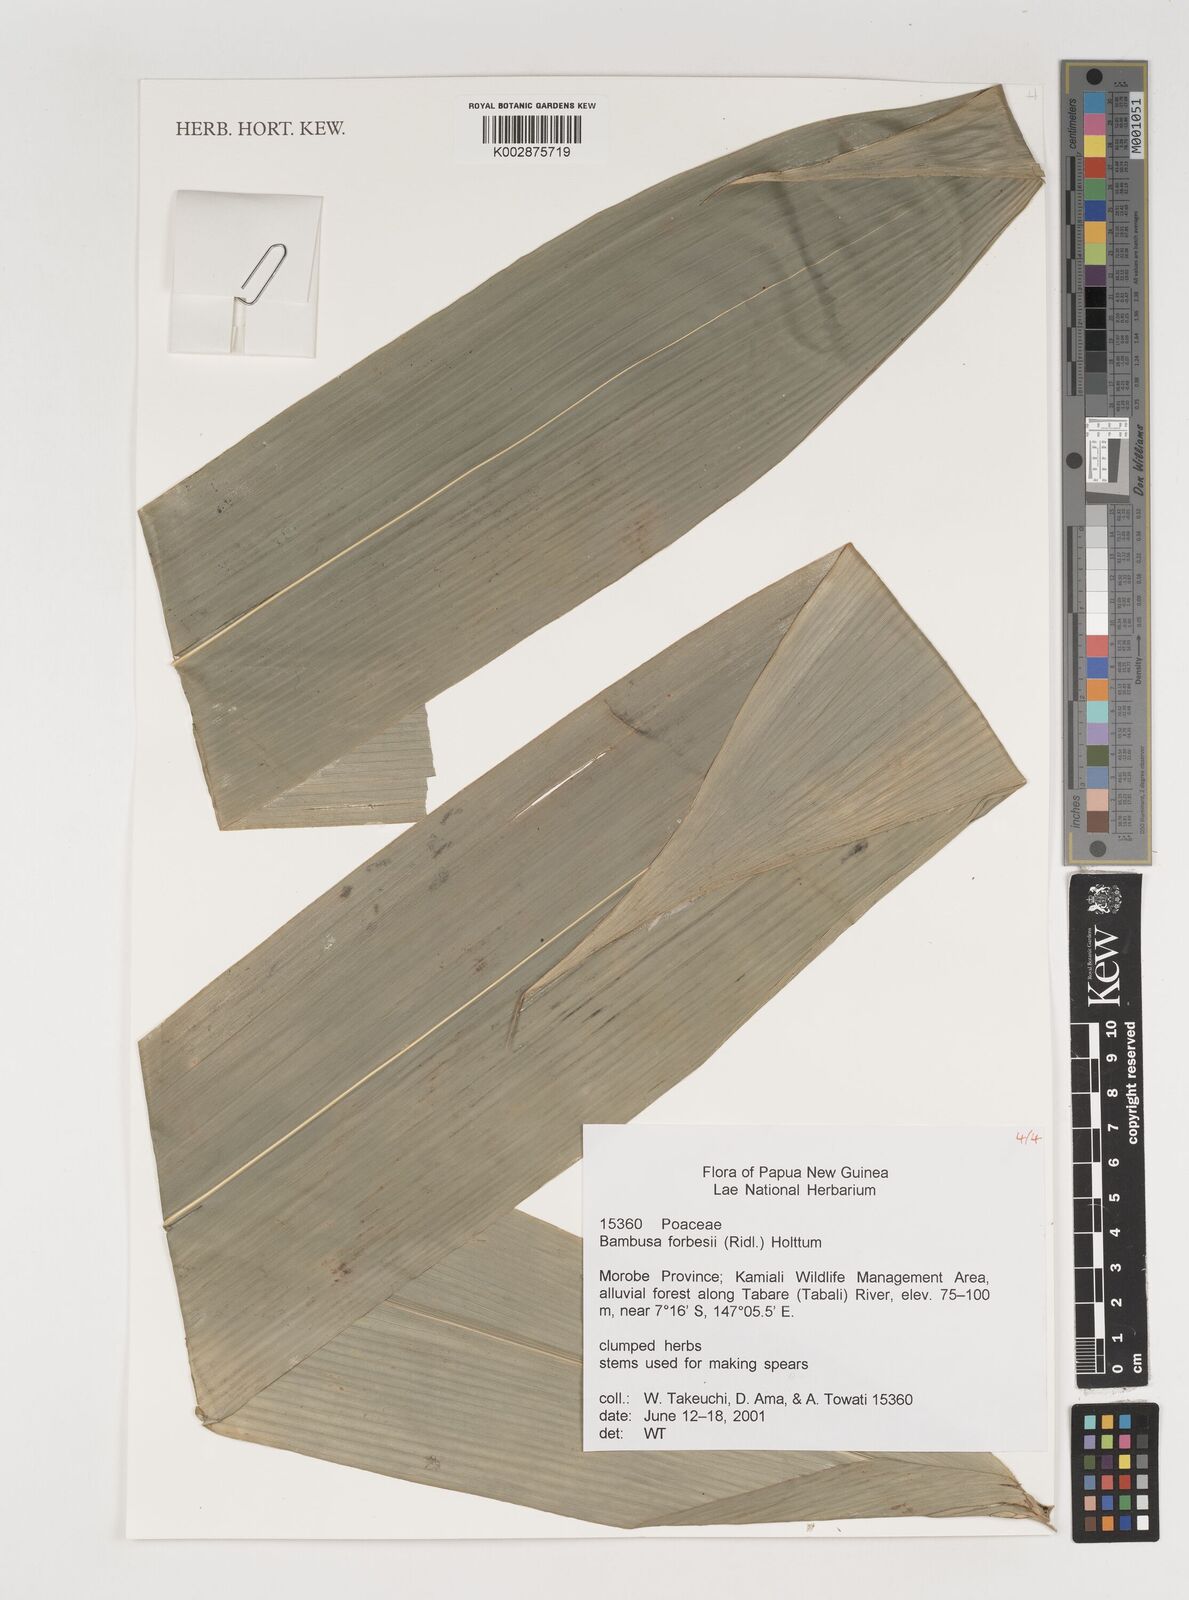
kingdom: Plantae
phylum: Tracheophyta
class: Liliopsida
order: Poales
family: Poaceae
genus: Neololeba
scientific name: Neololeba atra
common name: Cape bamboo
